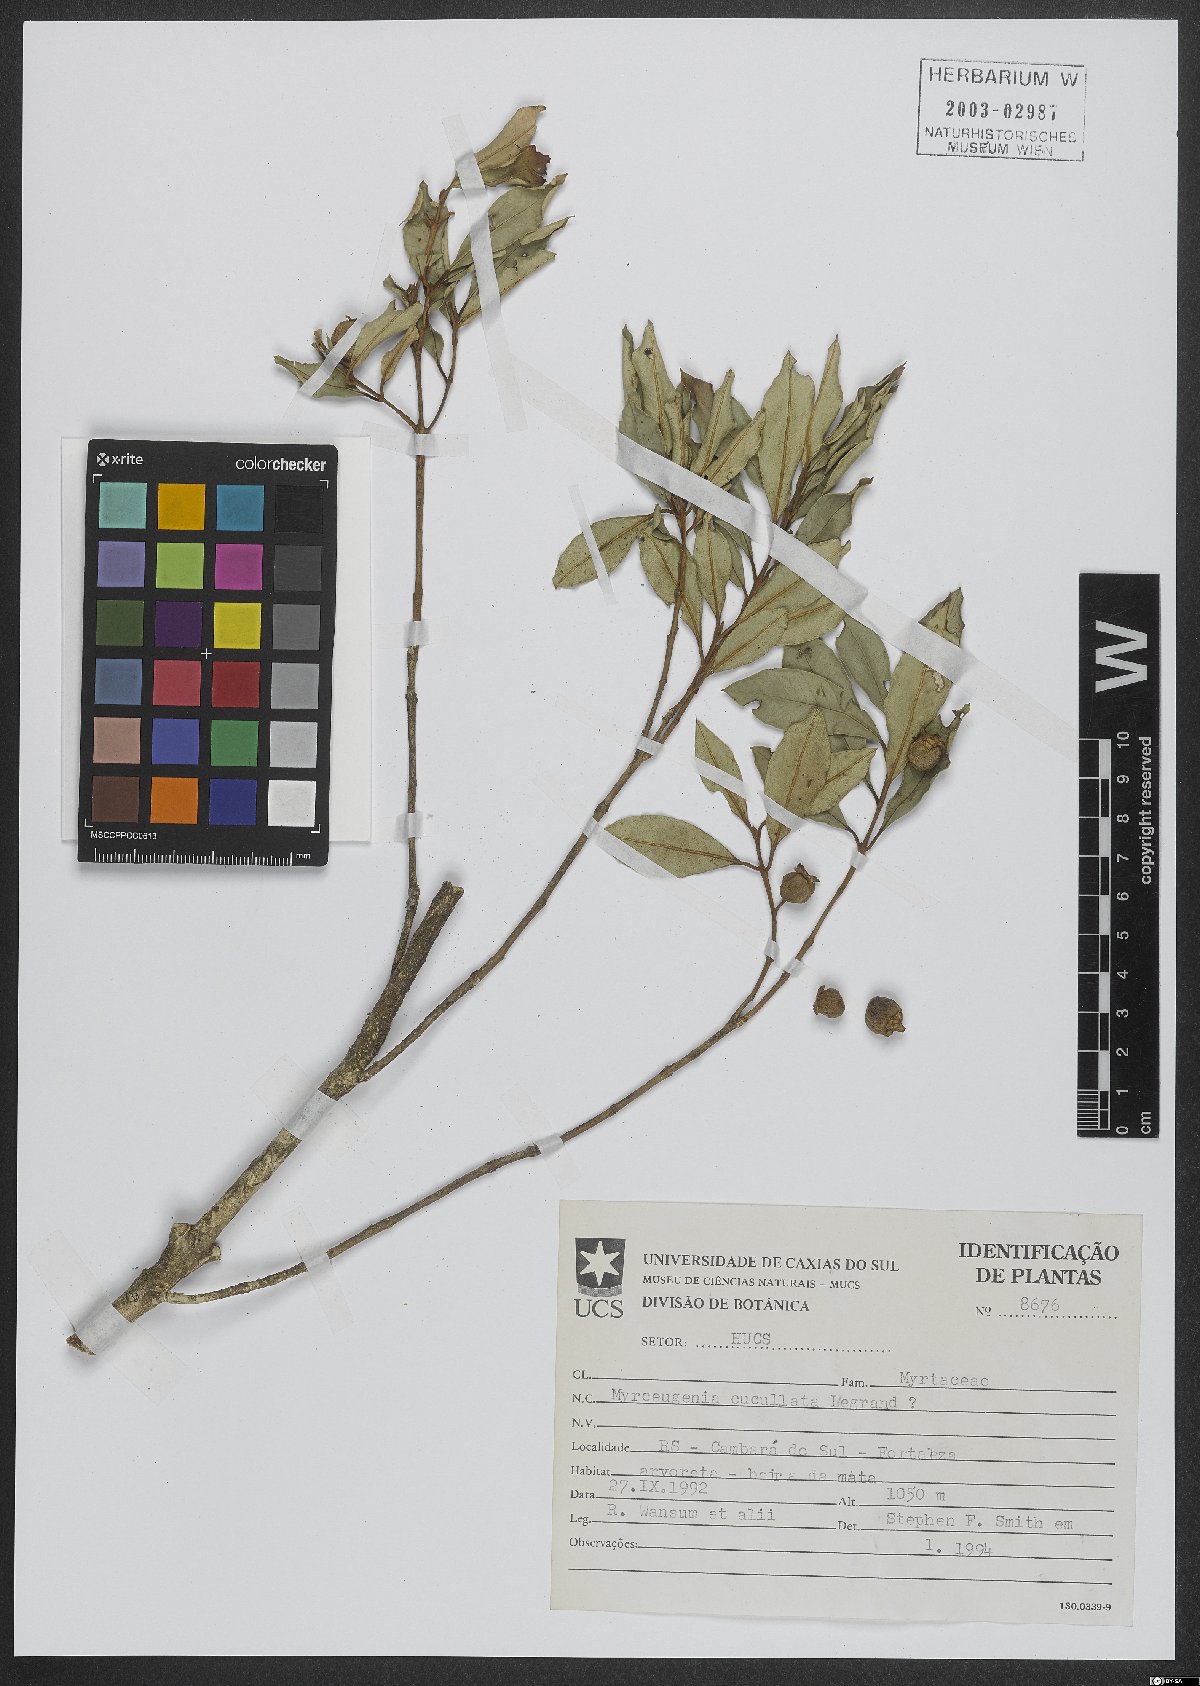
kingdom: Plantae
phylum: Tracheophyta
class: Magnoliopsida
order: Myrtales
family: Myrtaceae
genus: Myrceugenia
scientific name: Myrceugenia cucullata
